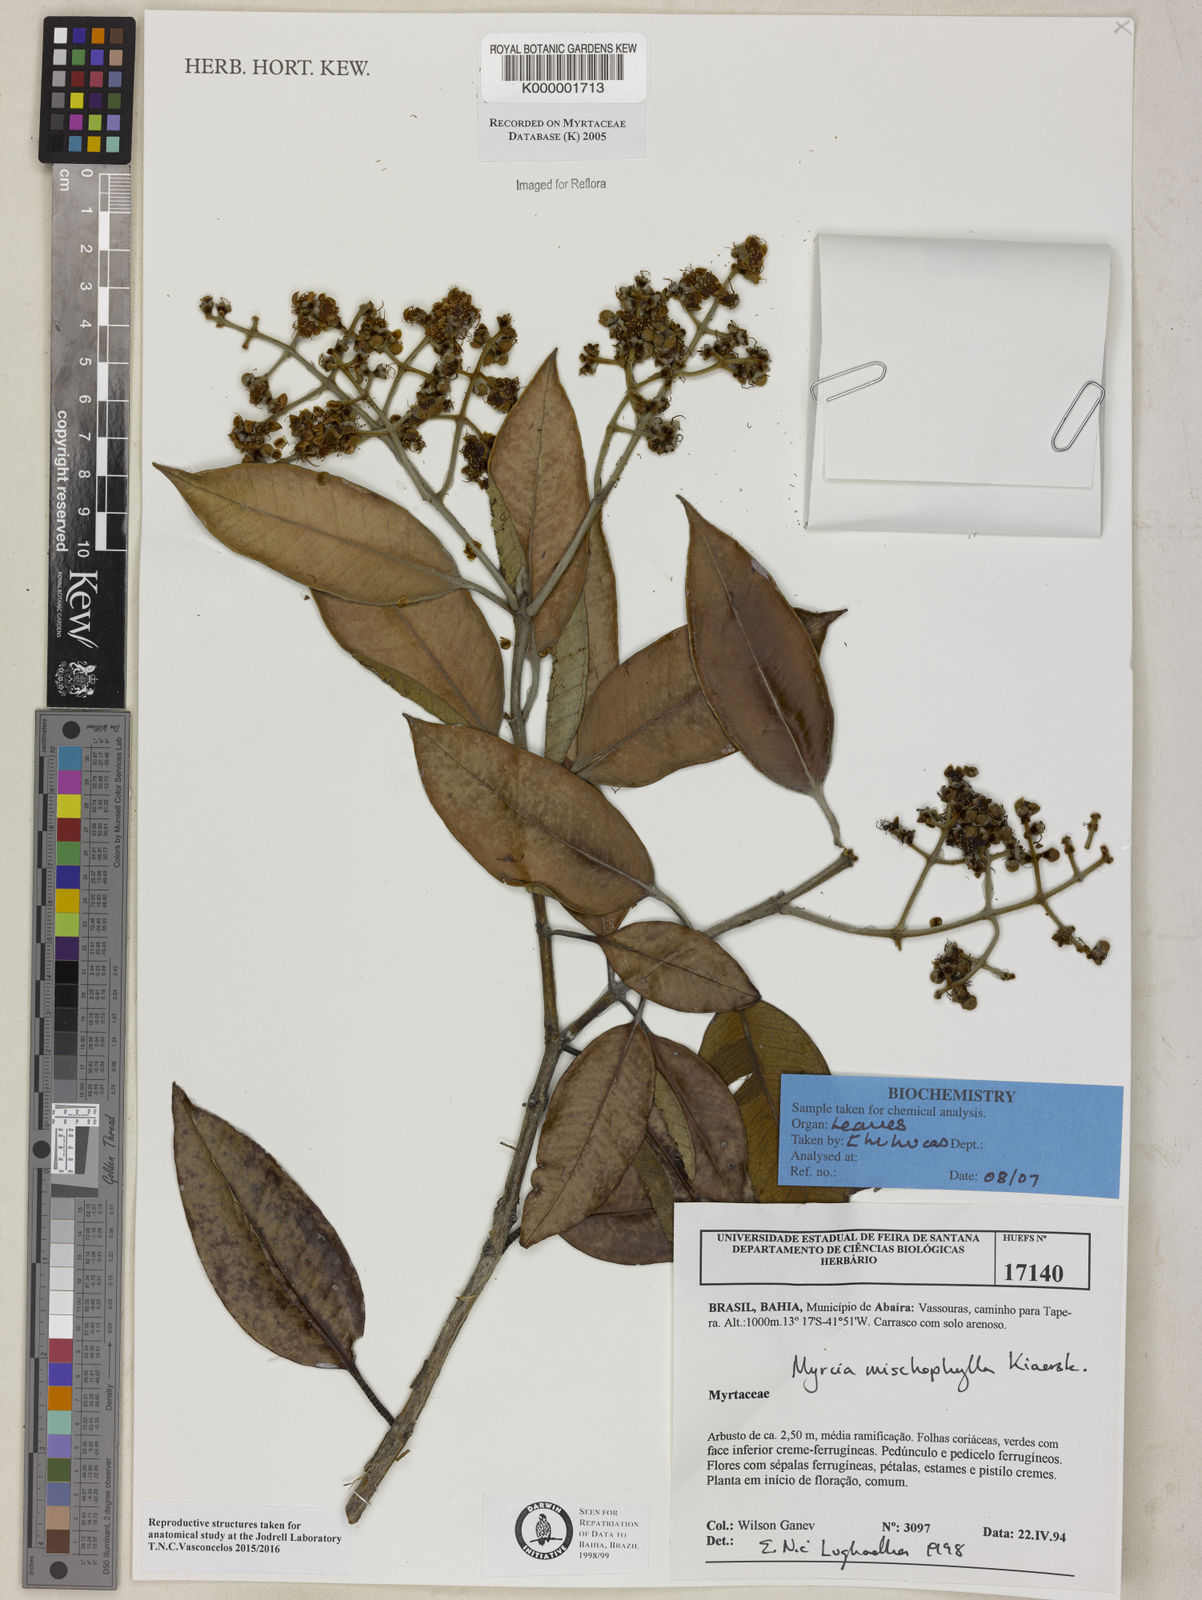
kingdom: Plantae
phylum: Tracheophyta
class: Magnoliopsida
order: Myrtales
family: Myrtaceae
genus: Myrcia
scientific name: Myrcia mischophylla
